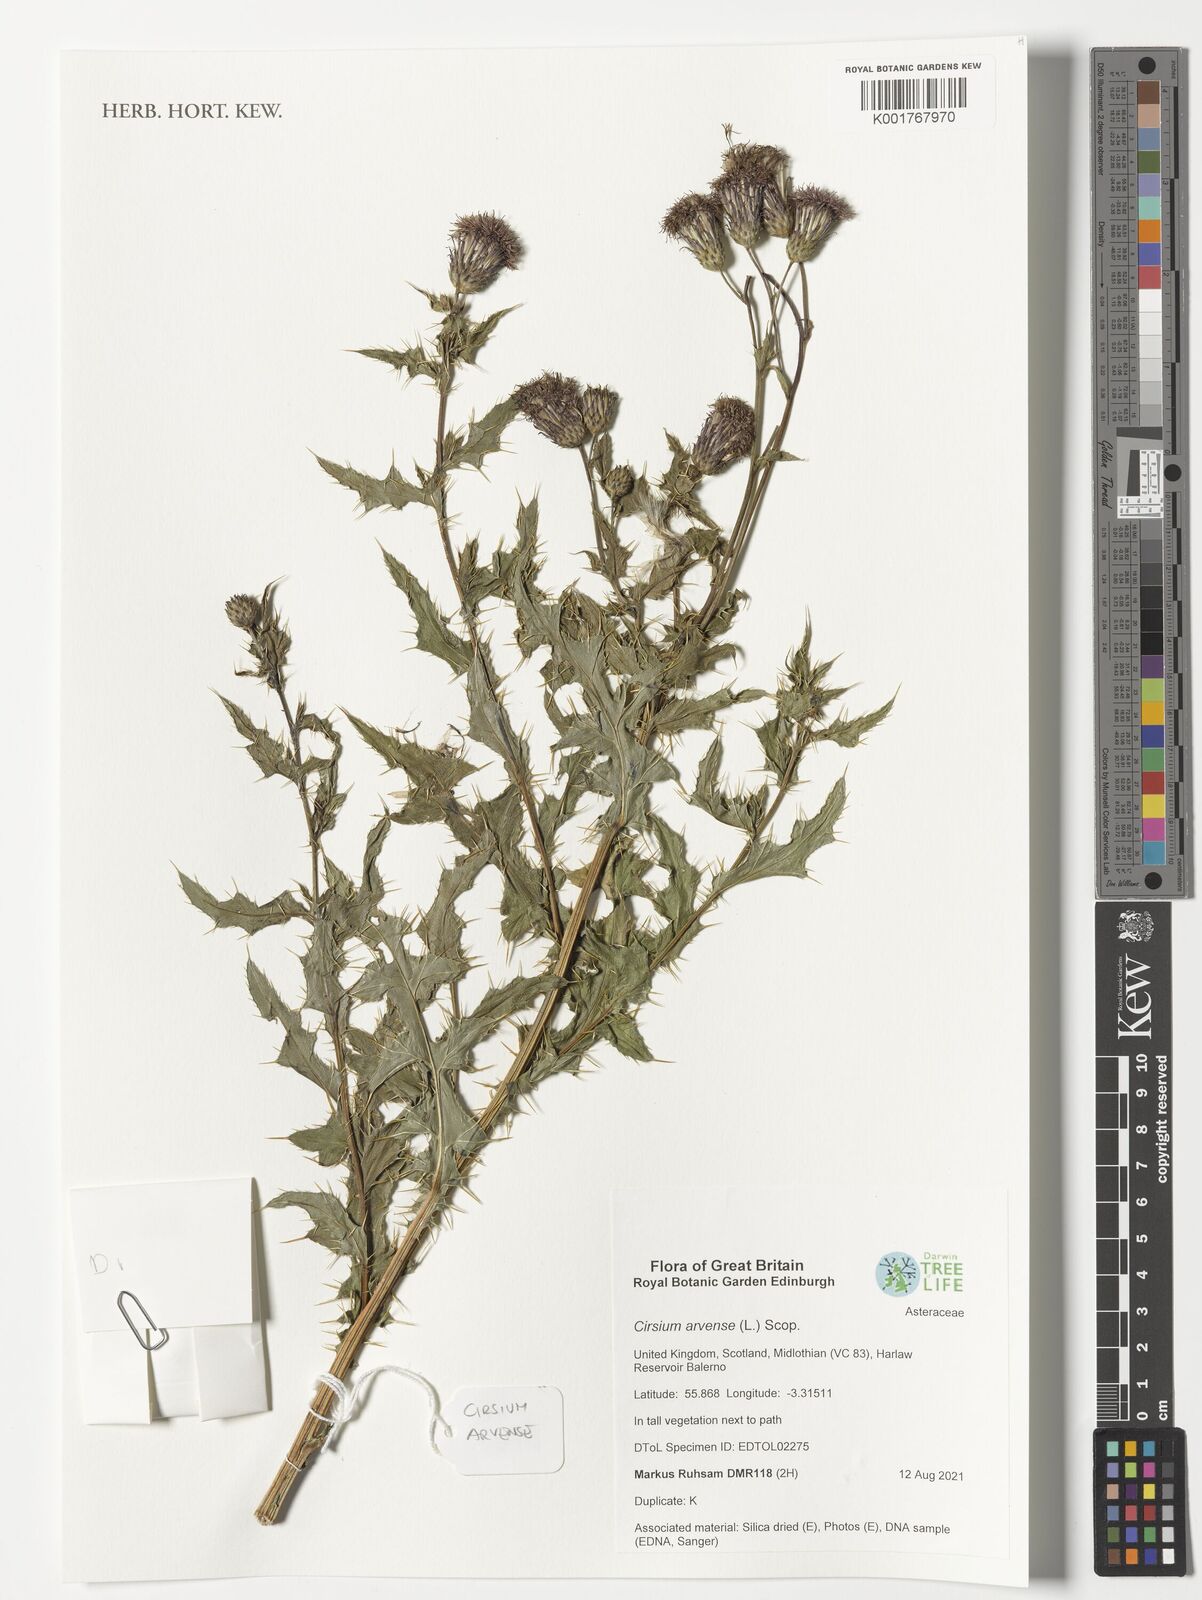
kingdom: Plantae
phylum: Tracheophyta
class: Magnoliopsida
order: Asterales
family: Asteraceae
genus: Cirsium
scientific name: Cirsium arvense
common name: Creeping thistle
